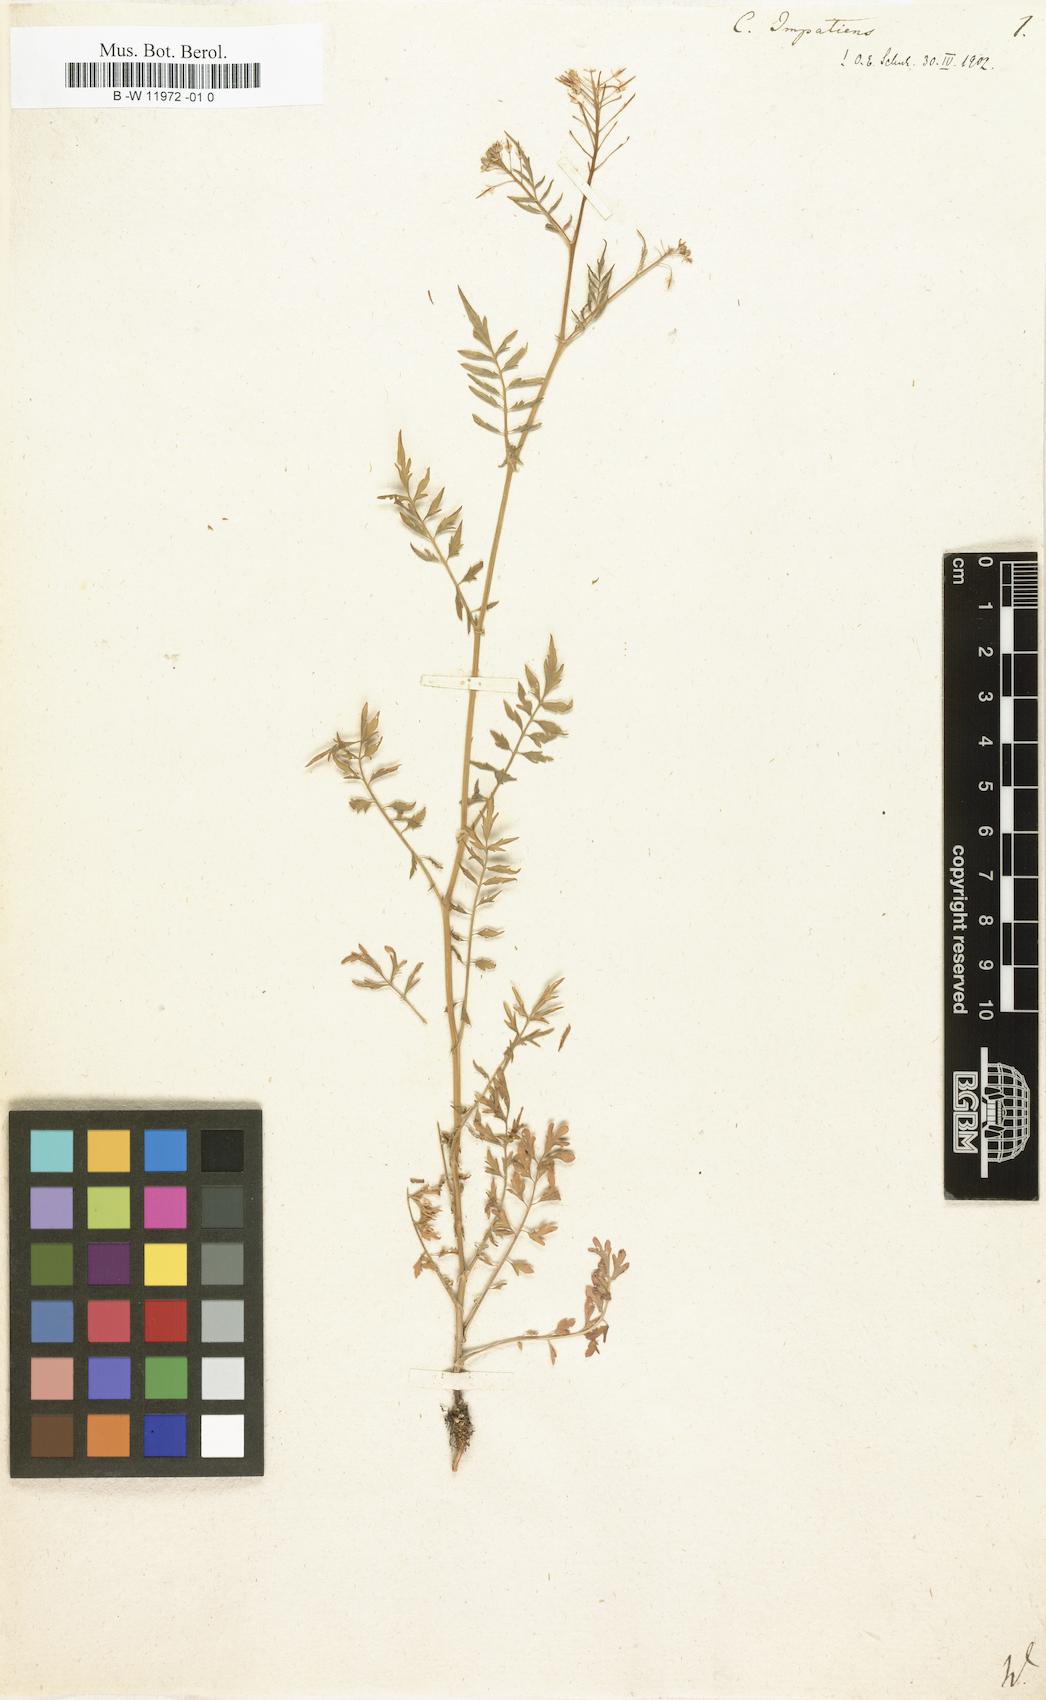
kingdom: Plantae
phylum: Tracheophyta
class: Magnoliopsida
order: Brassicales
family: Brassicaceae
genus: Cardamine
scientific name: Cardamine impatiens
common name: Narrow-leaved bitter-cress
